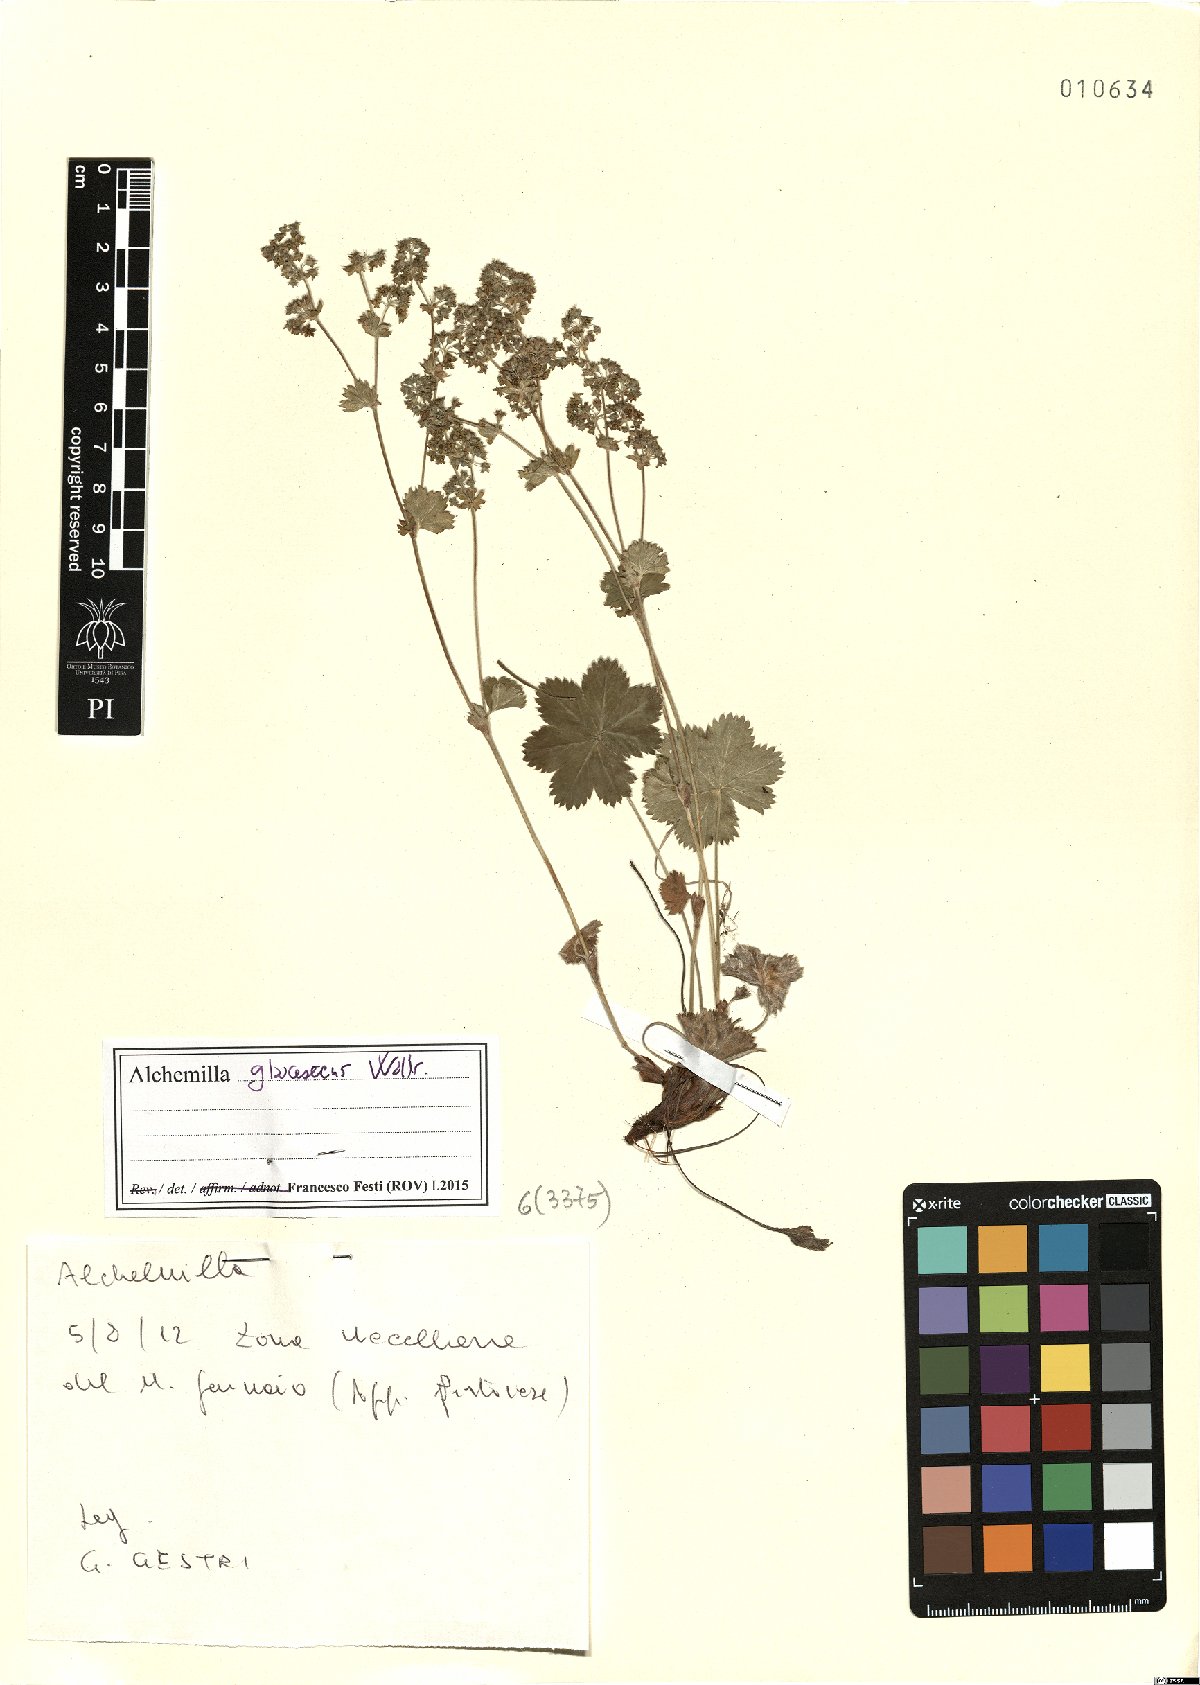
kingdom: Plantae
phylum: Tracheophyta
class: Magnoliopsida
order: Rosales
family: Rosaceae
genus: Alchemilla
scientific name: Alchemilla glaucescens
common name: Silky lady's mantle
